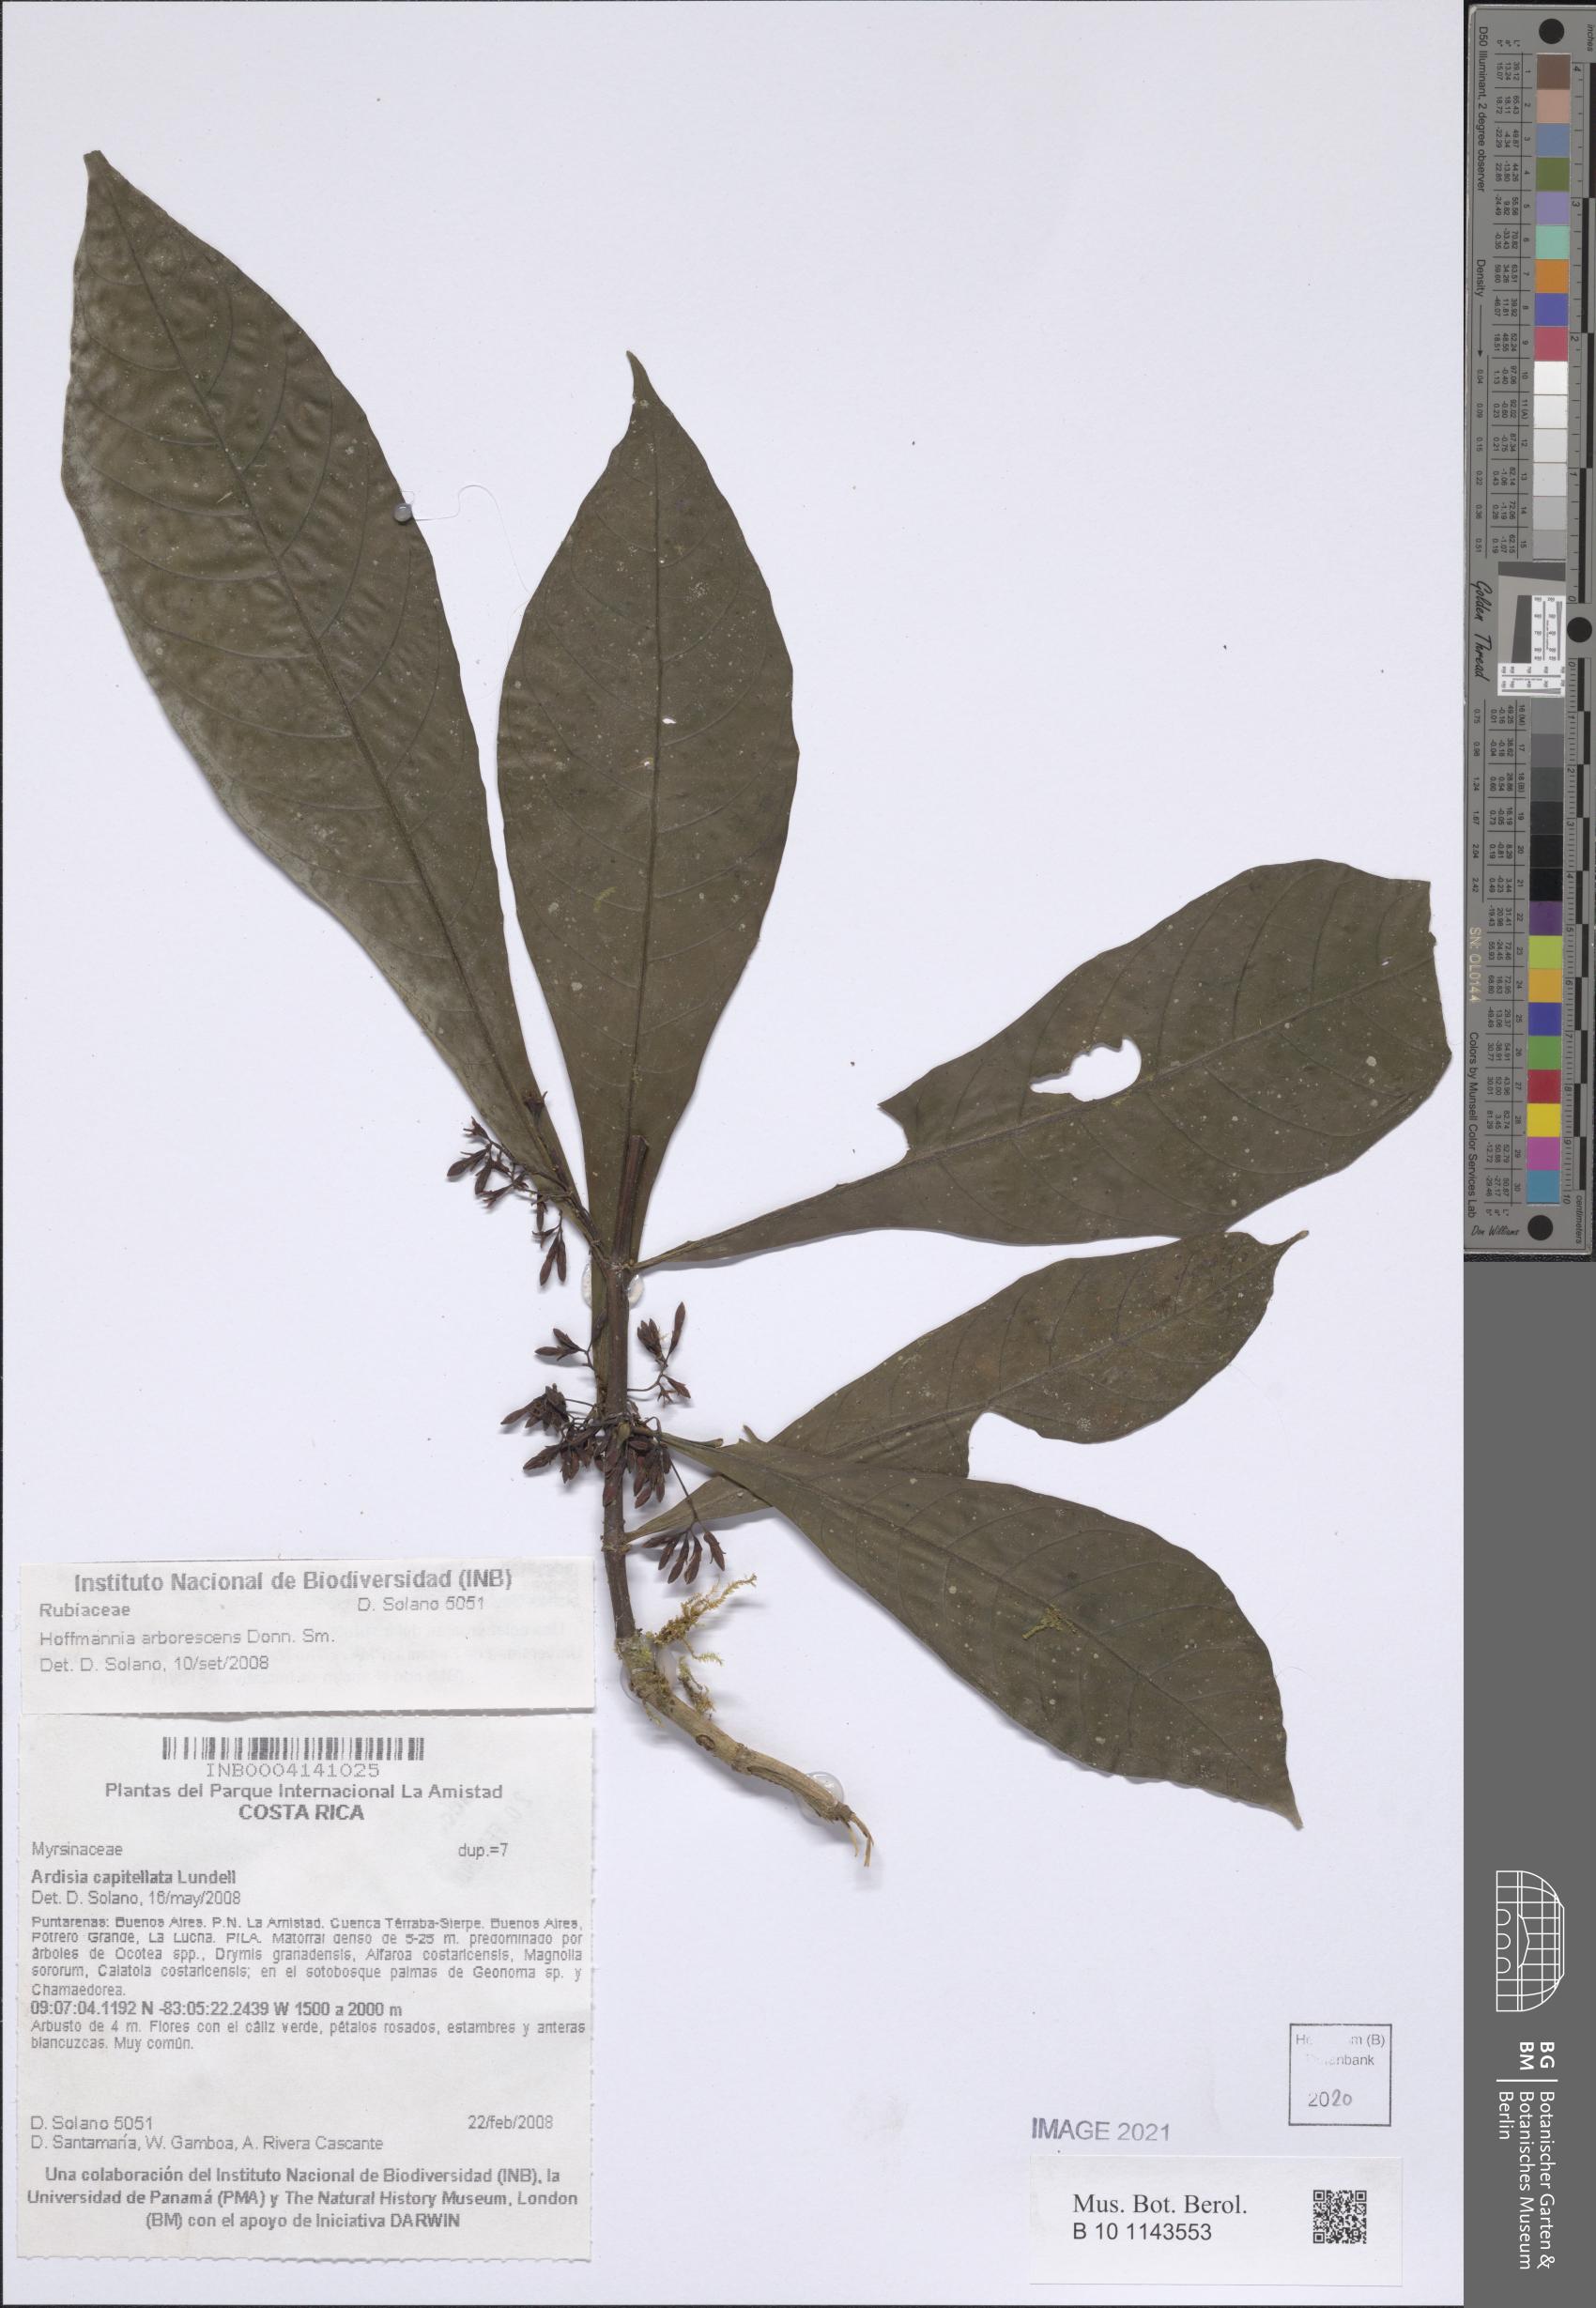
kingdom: Plantae
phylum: Tracheophyta
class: Magnoliopsida
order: Gentianales
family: Rubiaceae
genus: Hoffmannia
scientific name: Hoffmannia arborescens
